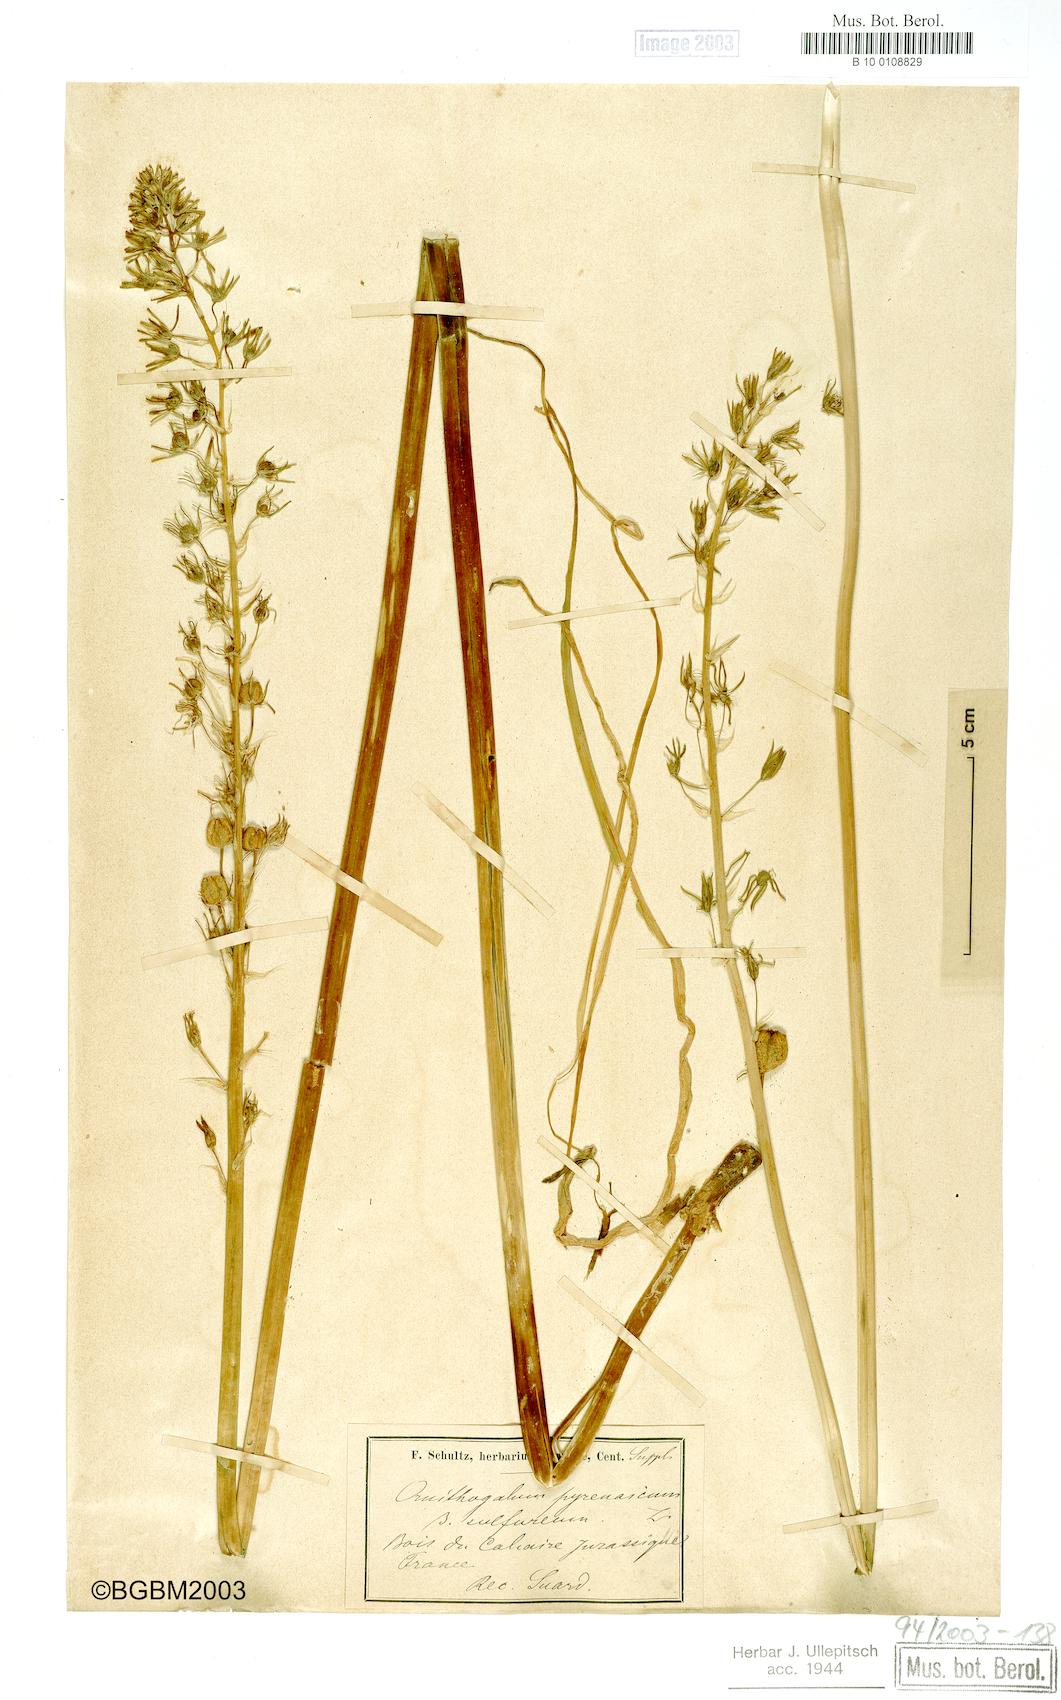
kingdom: Plantae
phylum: Tracheophyta
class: Liliopsida
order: Asparagales
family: Asparagaceae
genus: Ornithogalum
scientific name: Ornithogalum pyrenaicum
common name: Spiked star-of-bethlehem
